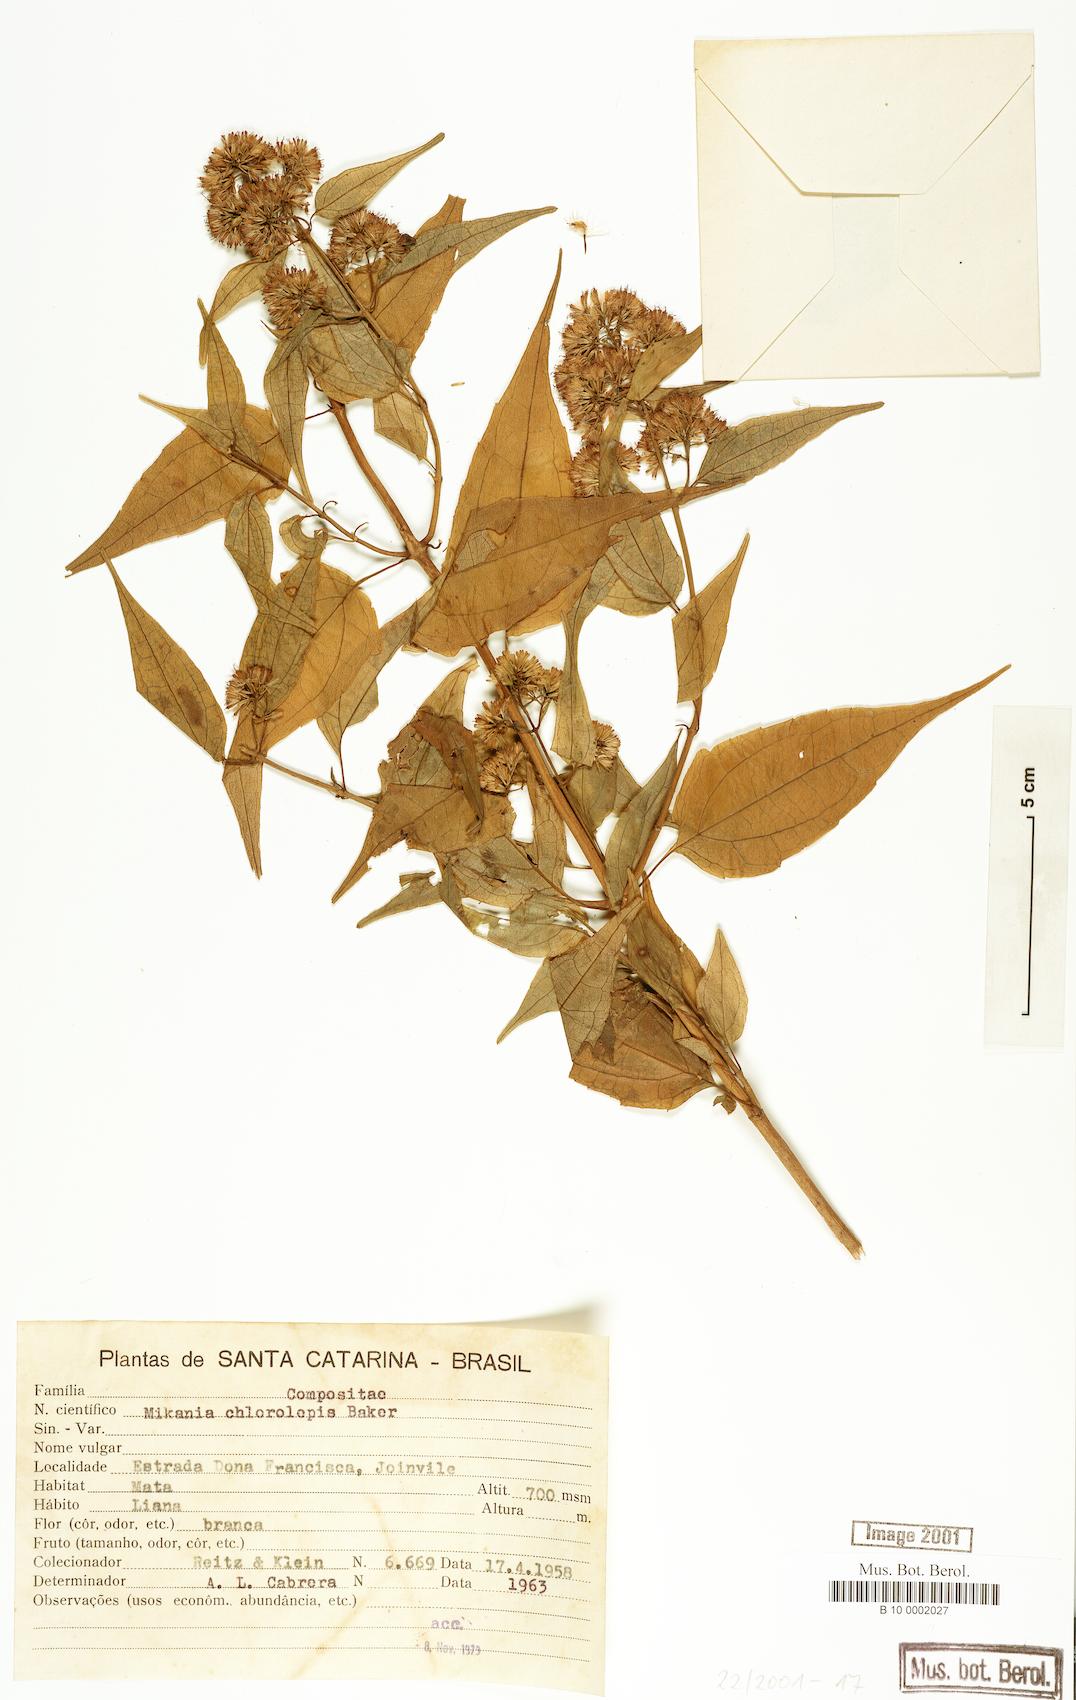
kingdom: Plantae
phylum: Tracheophyta
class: Magnoliopsida
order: Asterales
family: Asteraceae
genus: Mikania
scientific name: Mikania chlorolepis
